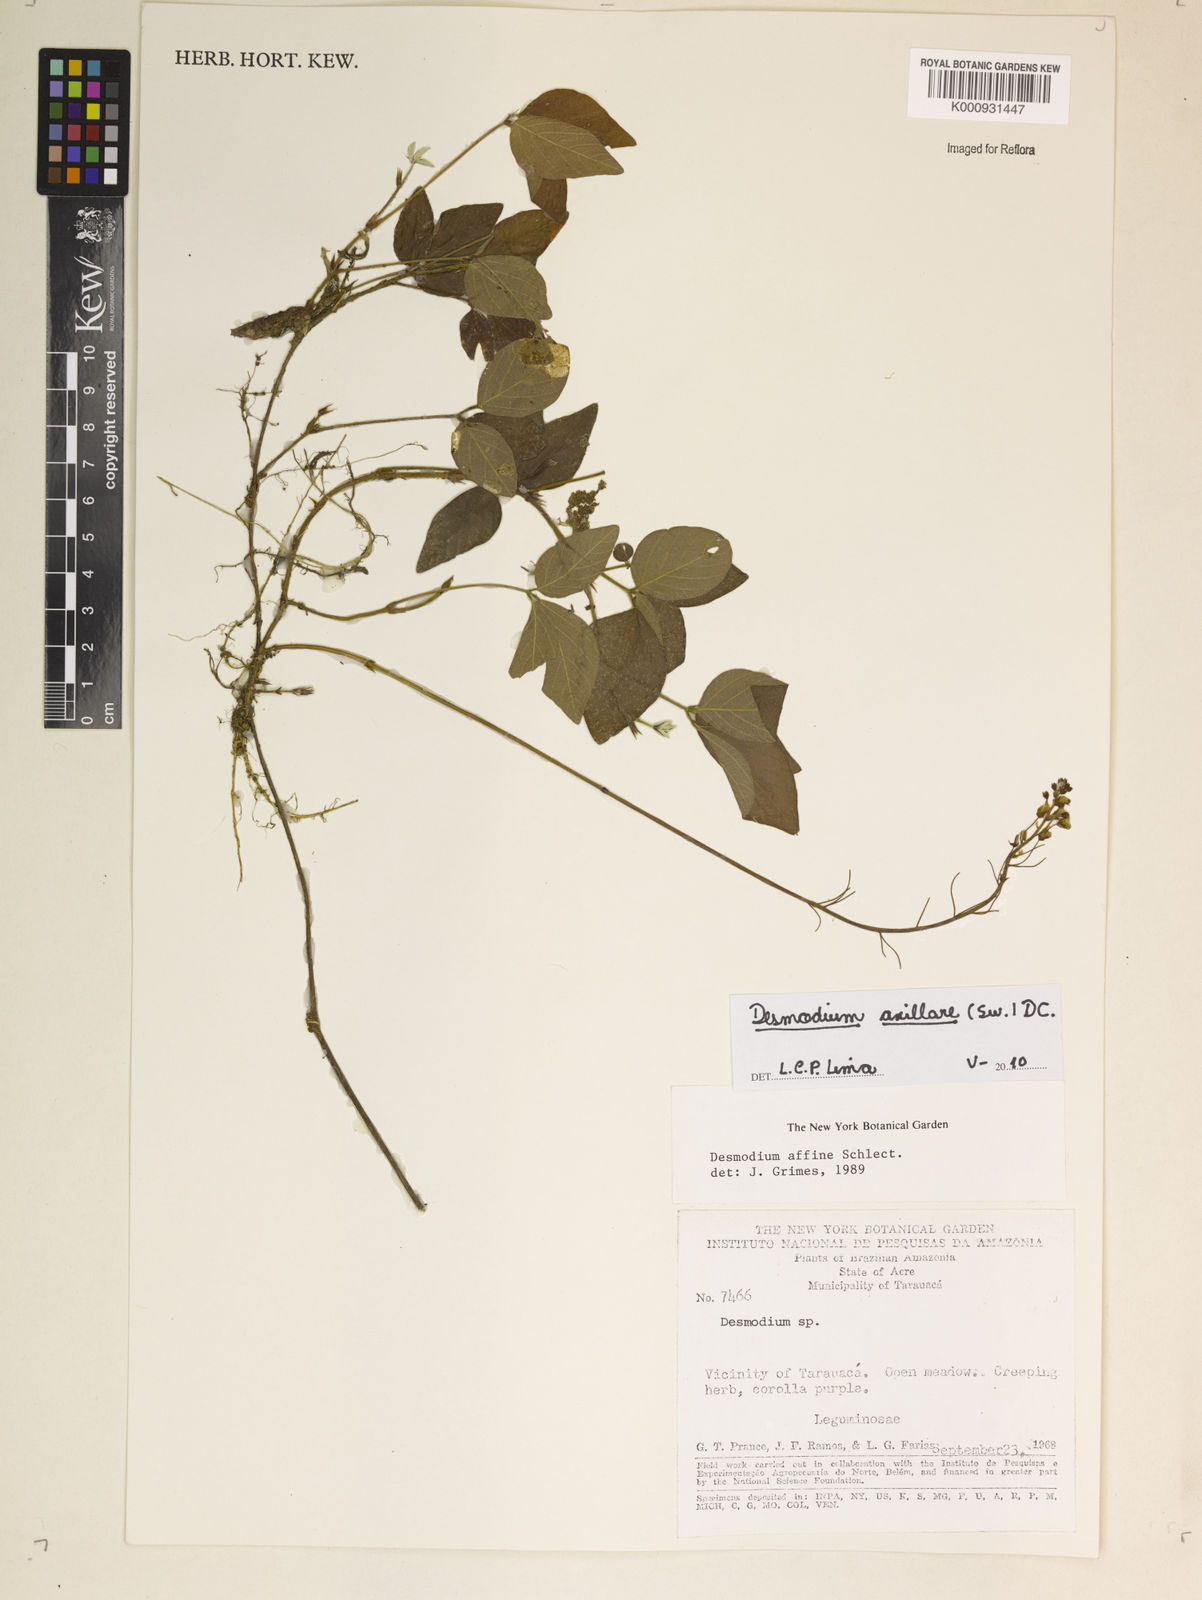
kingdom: Plantae
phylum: Tracheophyta
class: Magnoliopsida
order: Fabales
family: Fabaceae
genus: Desmodium
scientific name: Desmodium axillare
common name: Wire with
